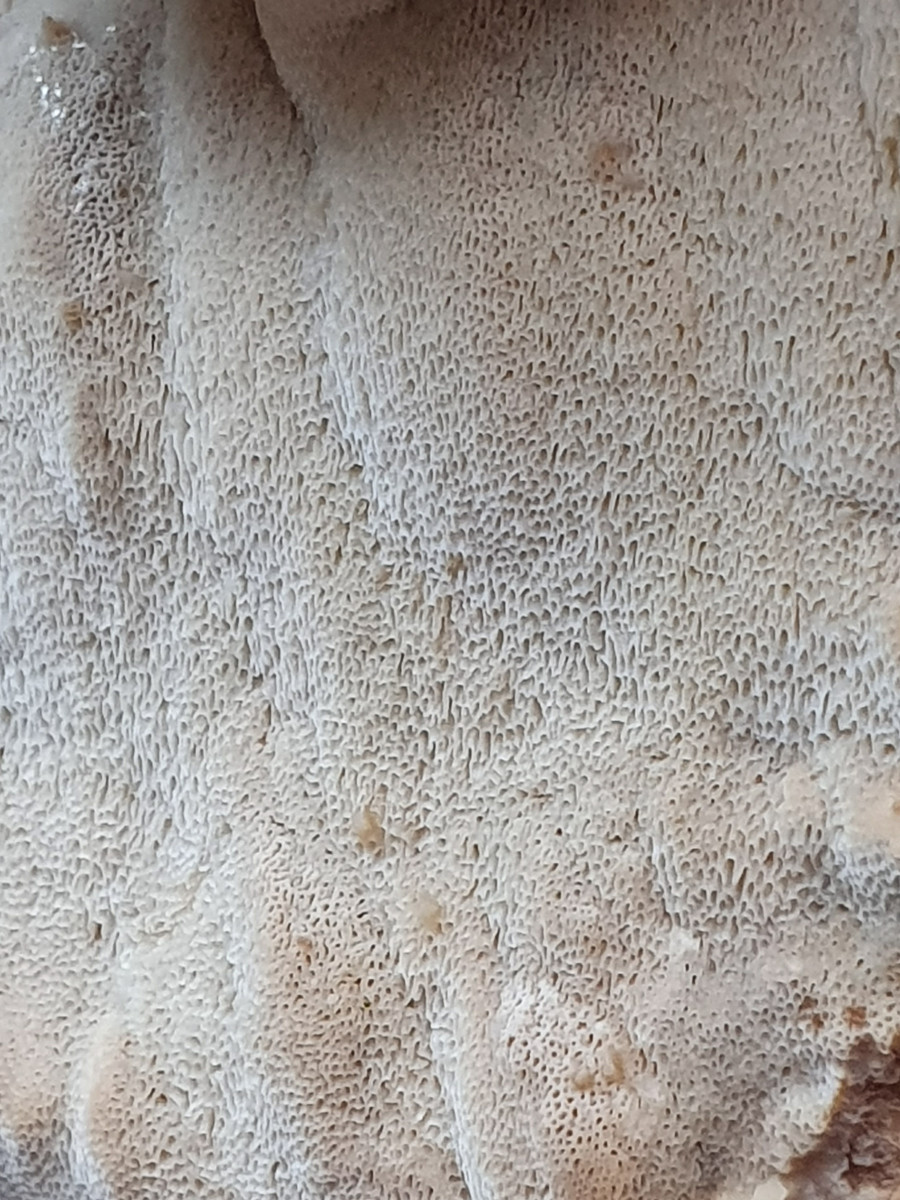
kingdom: Fungi
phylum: Basidiomycota
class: Agaricomycetes
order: Polyporales
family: Ischnodermataceae
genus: Ischnoderma
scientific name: Ischnoderma resinosum
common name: løv-tjæreporesvamp
